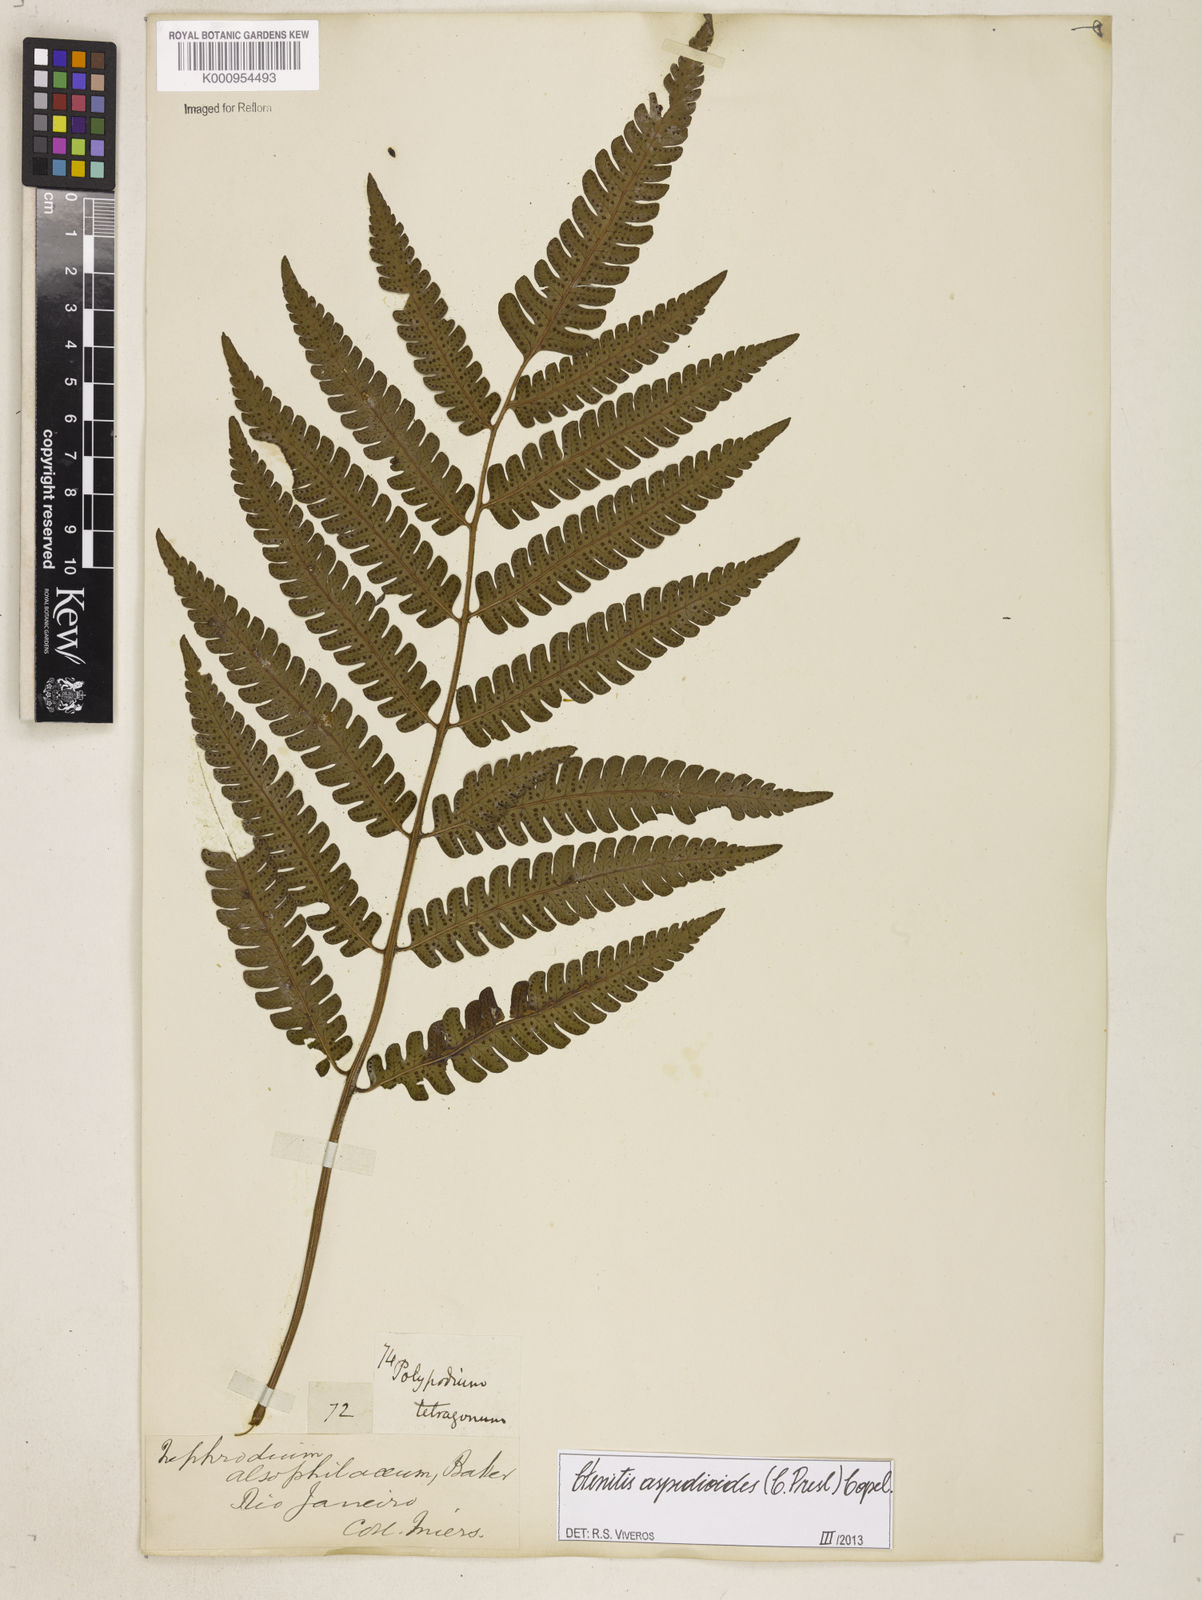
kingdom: Plantae
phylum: Tracheophyta
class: Polypodiopsida
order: Polypodiales
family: Dryopteridaceae
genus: Ctenitis
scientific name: Ctenitis aspidioides
